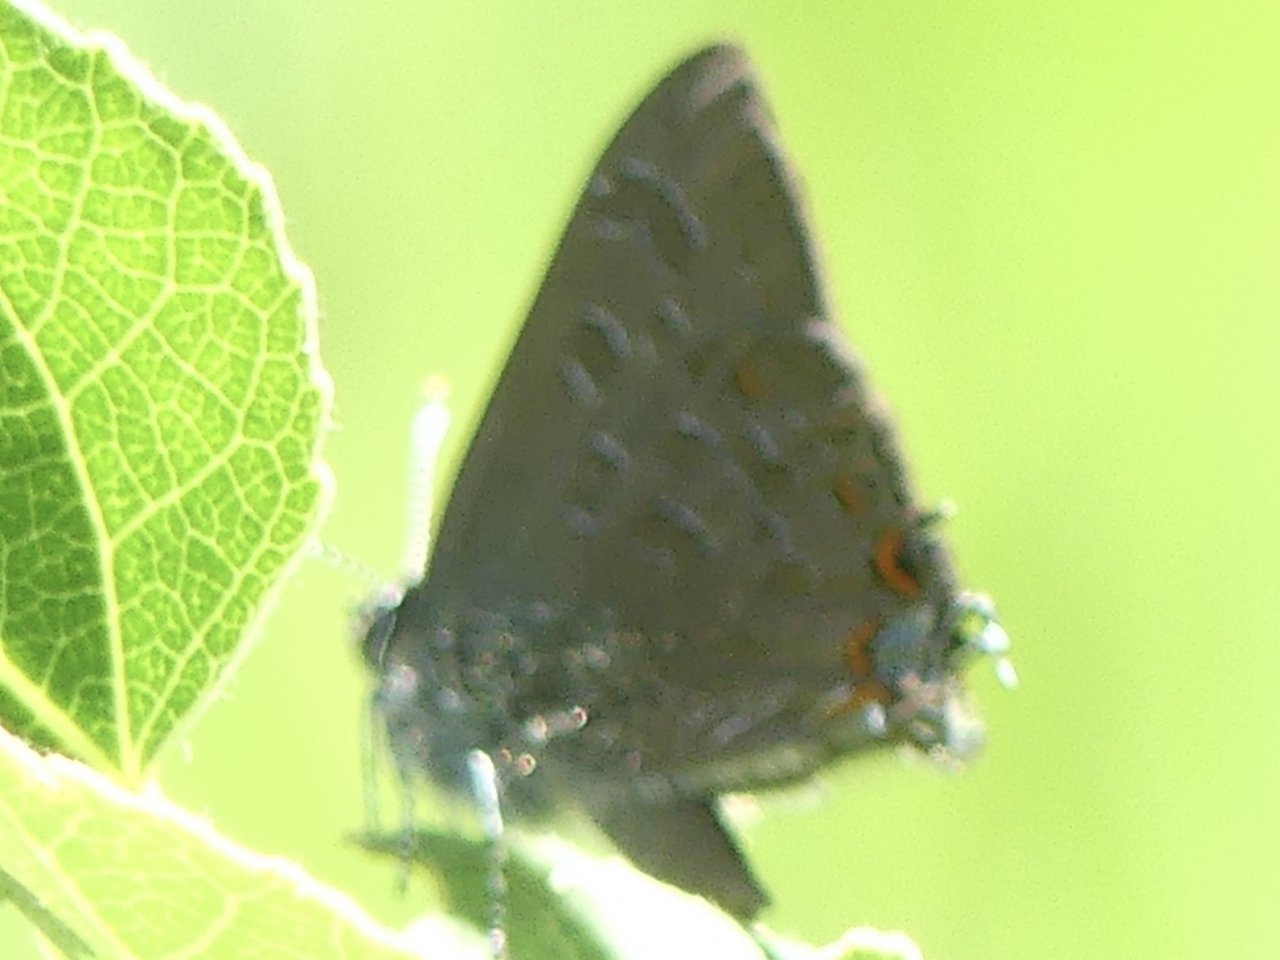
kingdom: Animalia
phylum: Arthropoda
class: Insecta
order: Lepidoptera
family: Lycaenidae
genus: Satyrium
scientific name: Satyrium liparops
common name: Striped Hairstreak
